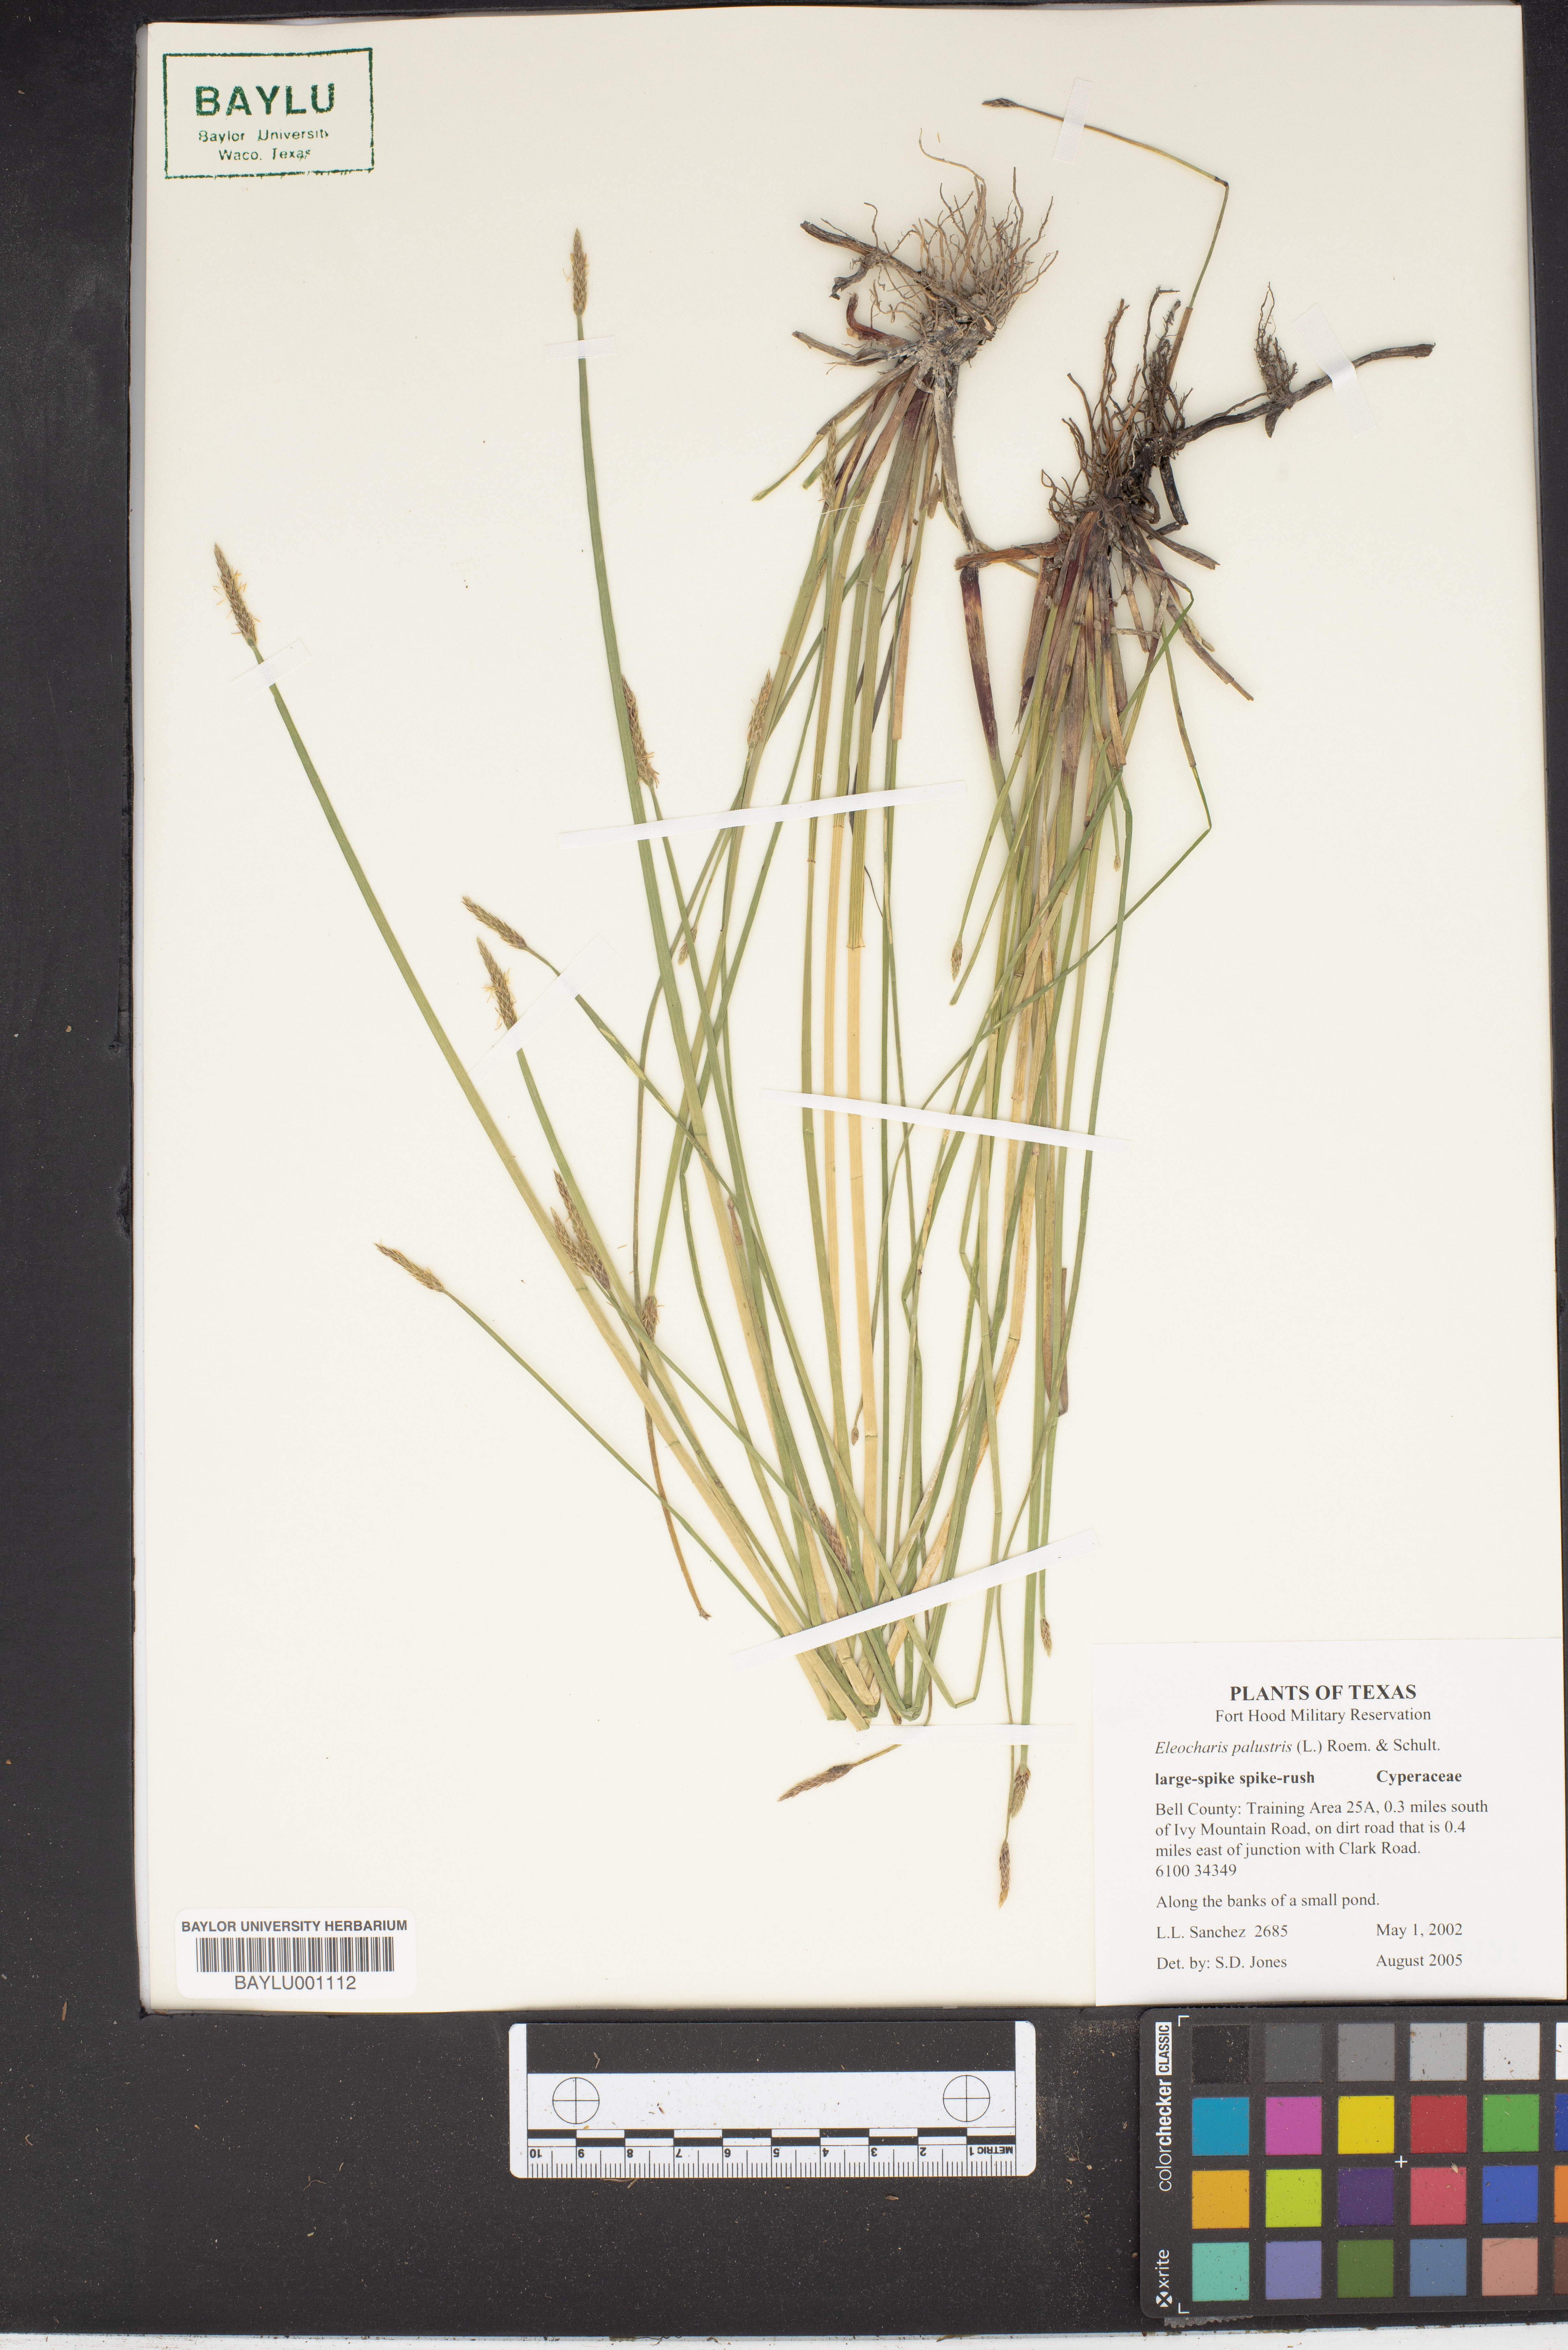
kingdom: Plantae
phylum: Tracheophyta
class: Liliopsida
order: Poales
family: Cyperaceae
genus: Eleocharis
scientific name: Eleocharis palustris
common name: Common spike-rush
